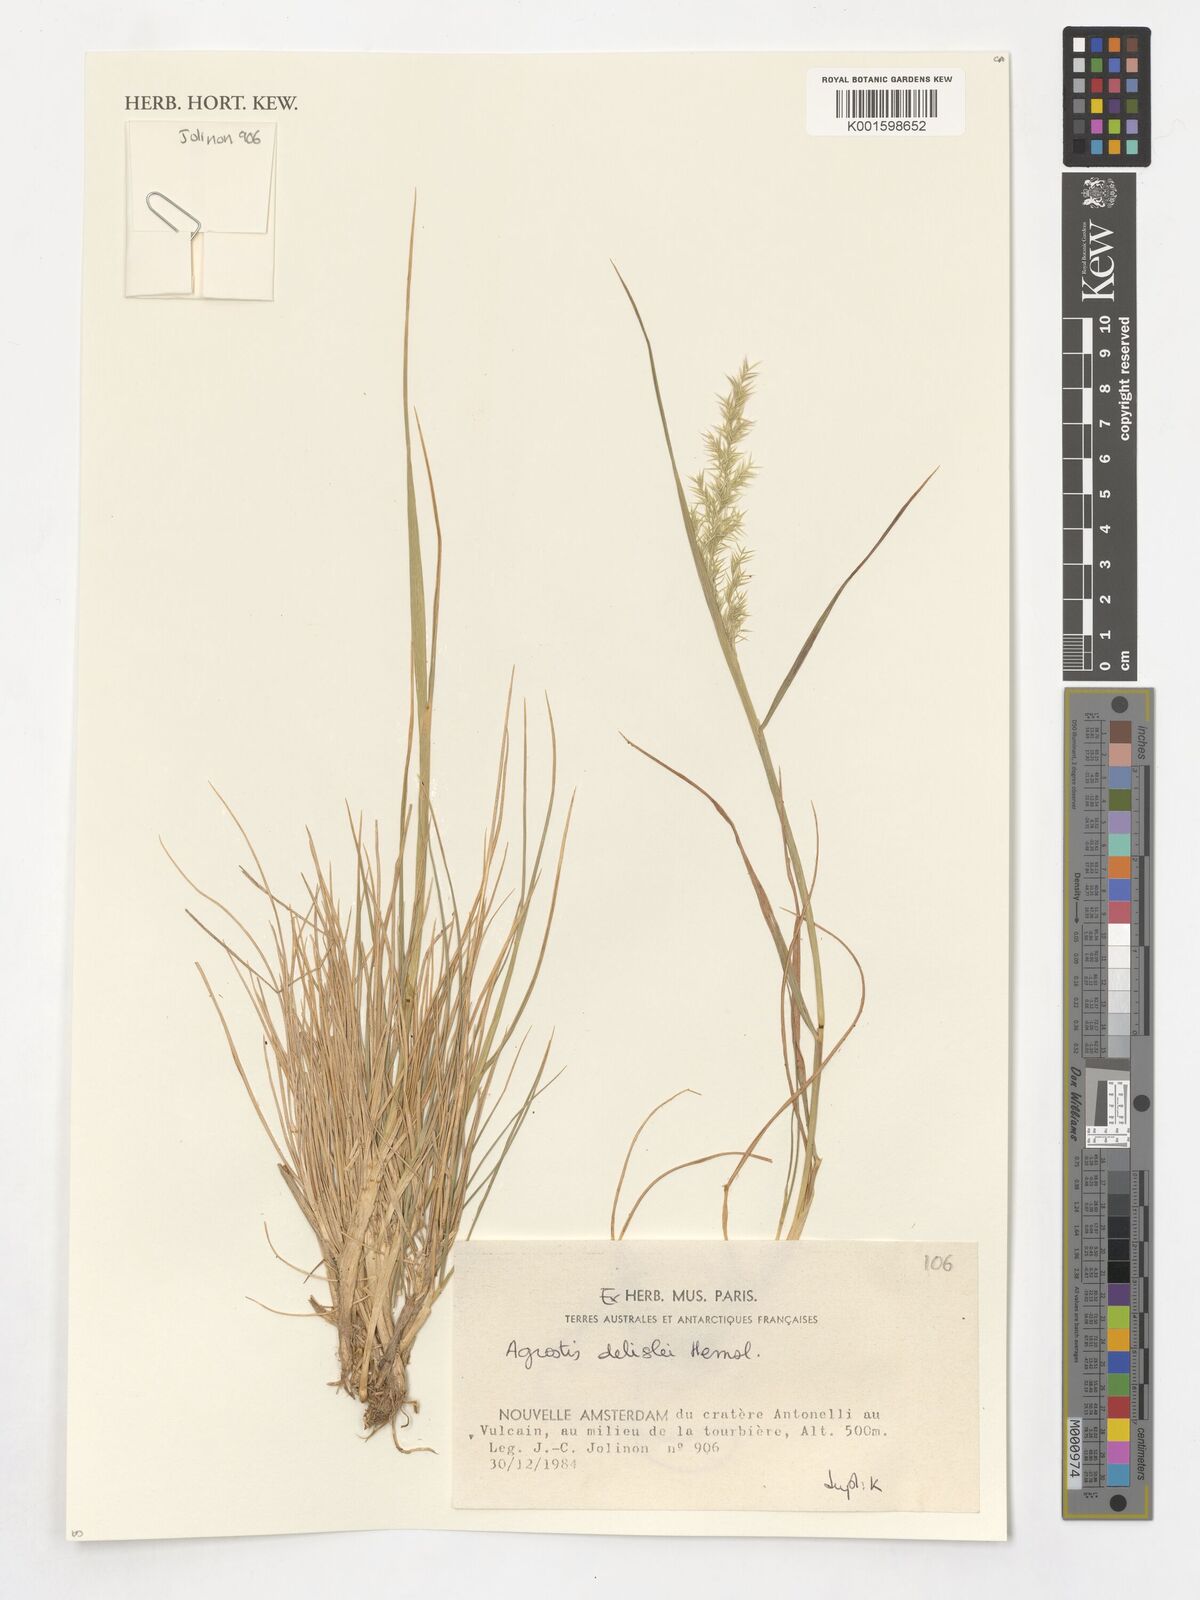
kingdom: Plantae
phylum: Tracheophyta
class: Liliopsida
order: Poales
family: Poaceae
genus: Agrostis
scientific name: Agrostis delislei
